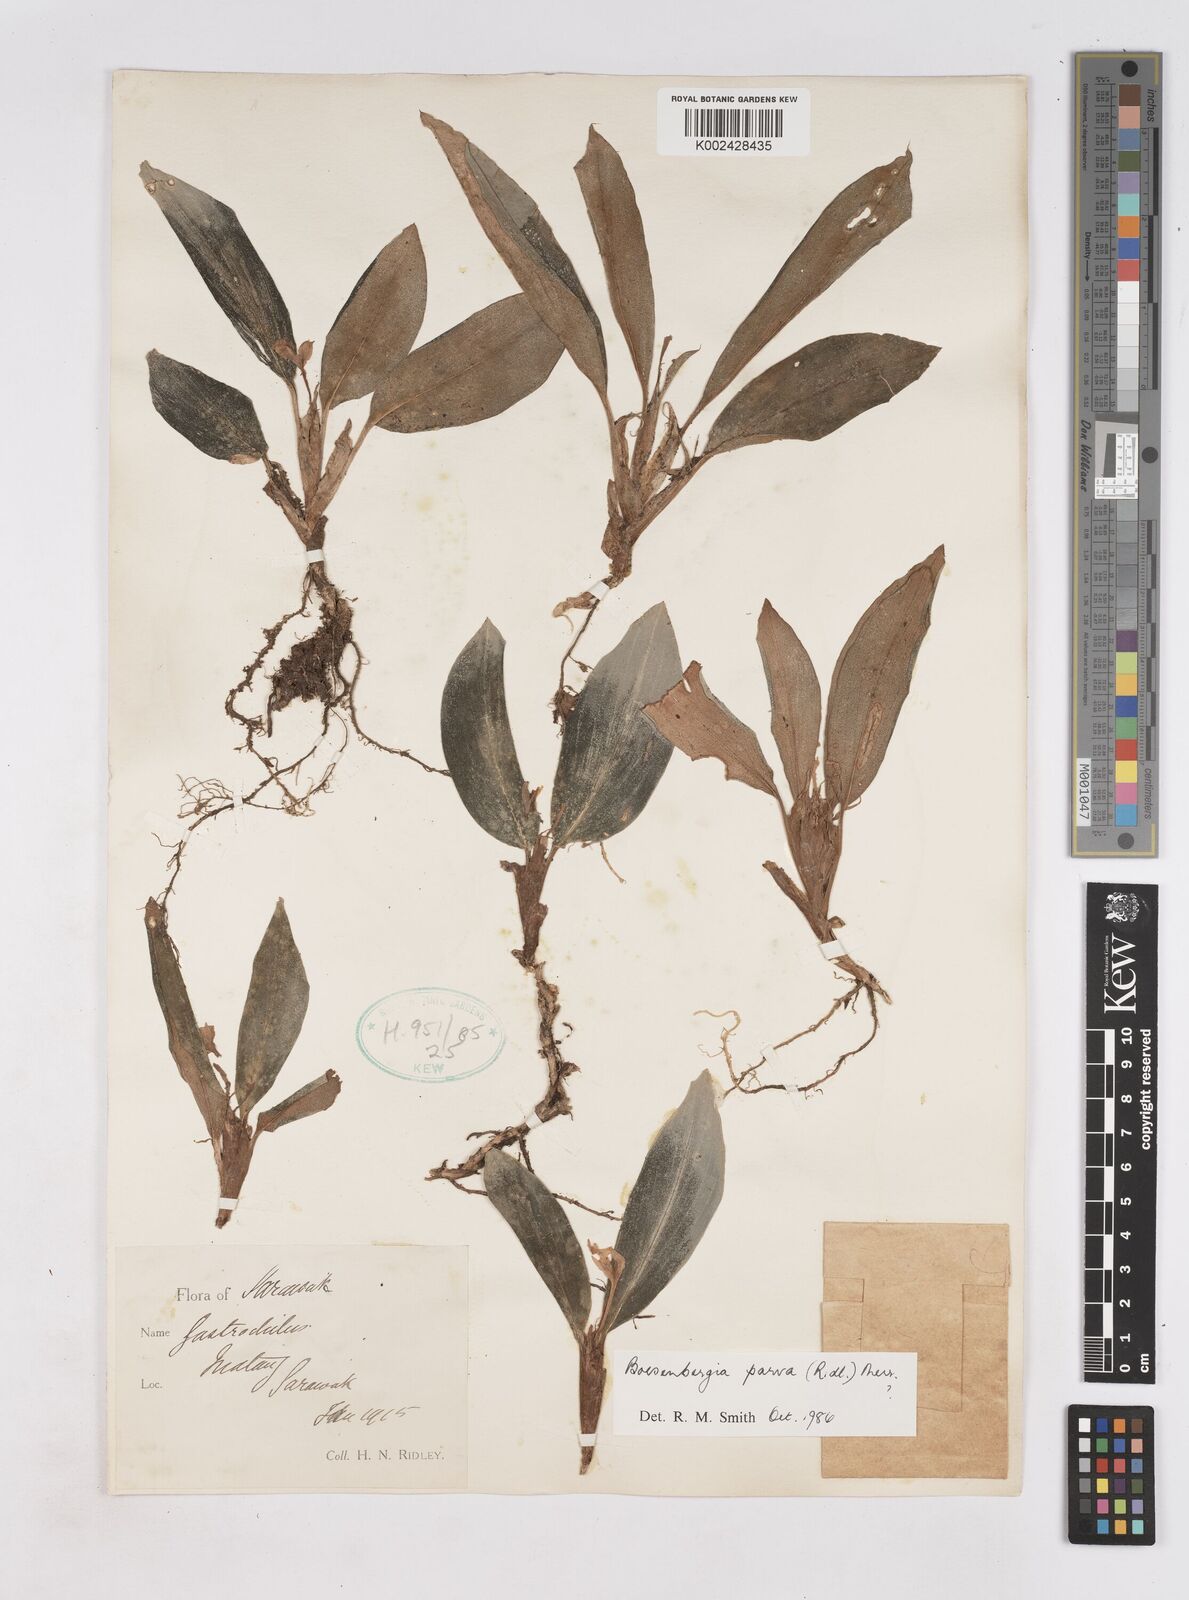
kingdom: Plantae
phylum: Tracheophyta
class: Liliopsida
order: Zingiberales
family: Zingiberaceae
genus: Boesenbergia
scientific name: Boesenbergia parva
